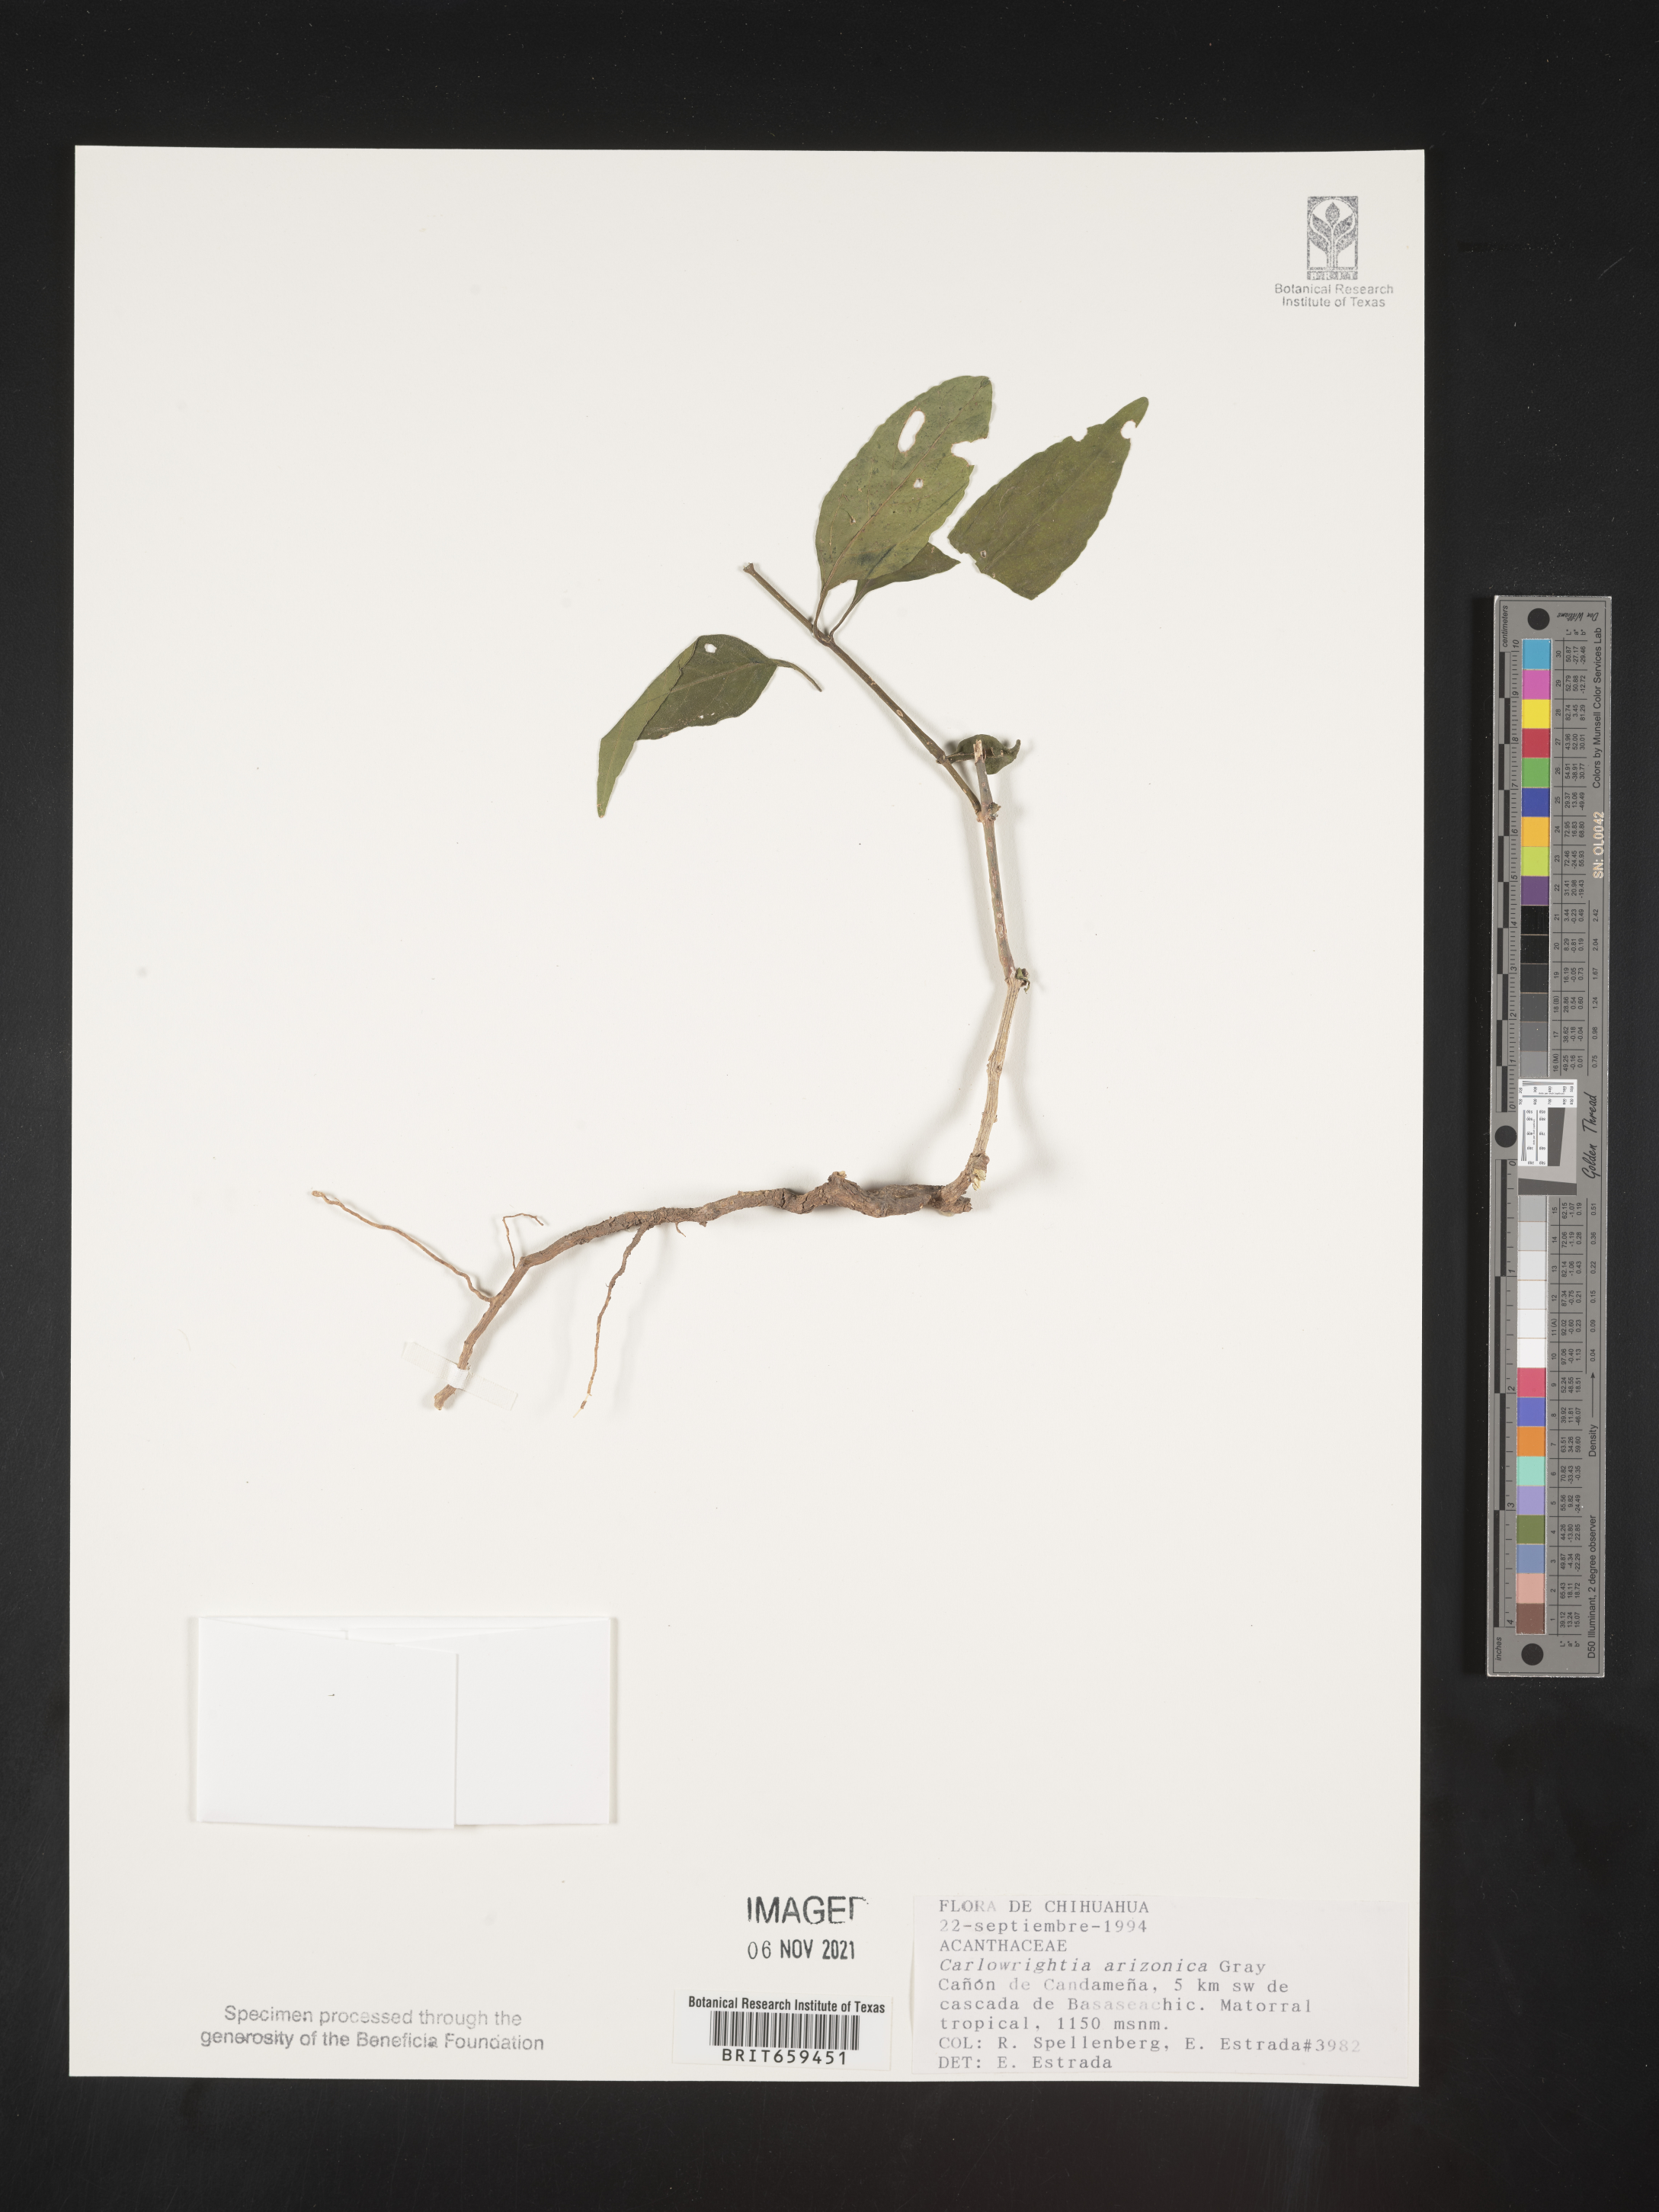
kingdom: Plantae
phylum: Tracheophyta
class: Magnoliopsida
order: Lamiales
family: Acanthaceae
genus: Carlowrightia
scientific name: Carlowrightia
